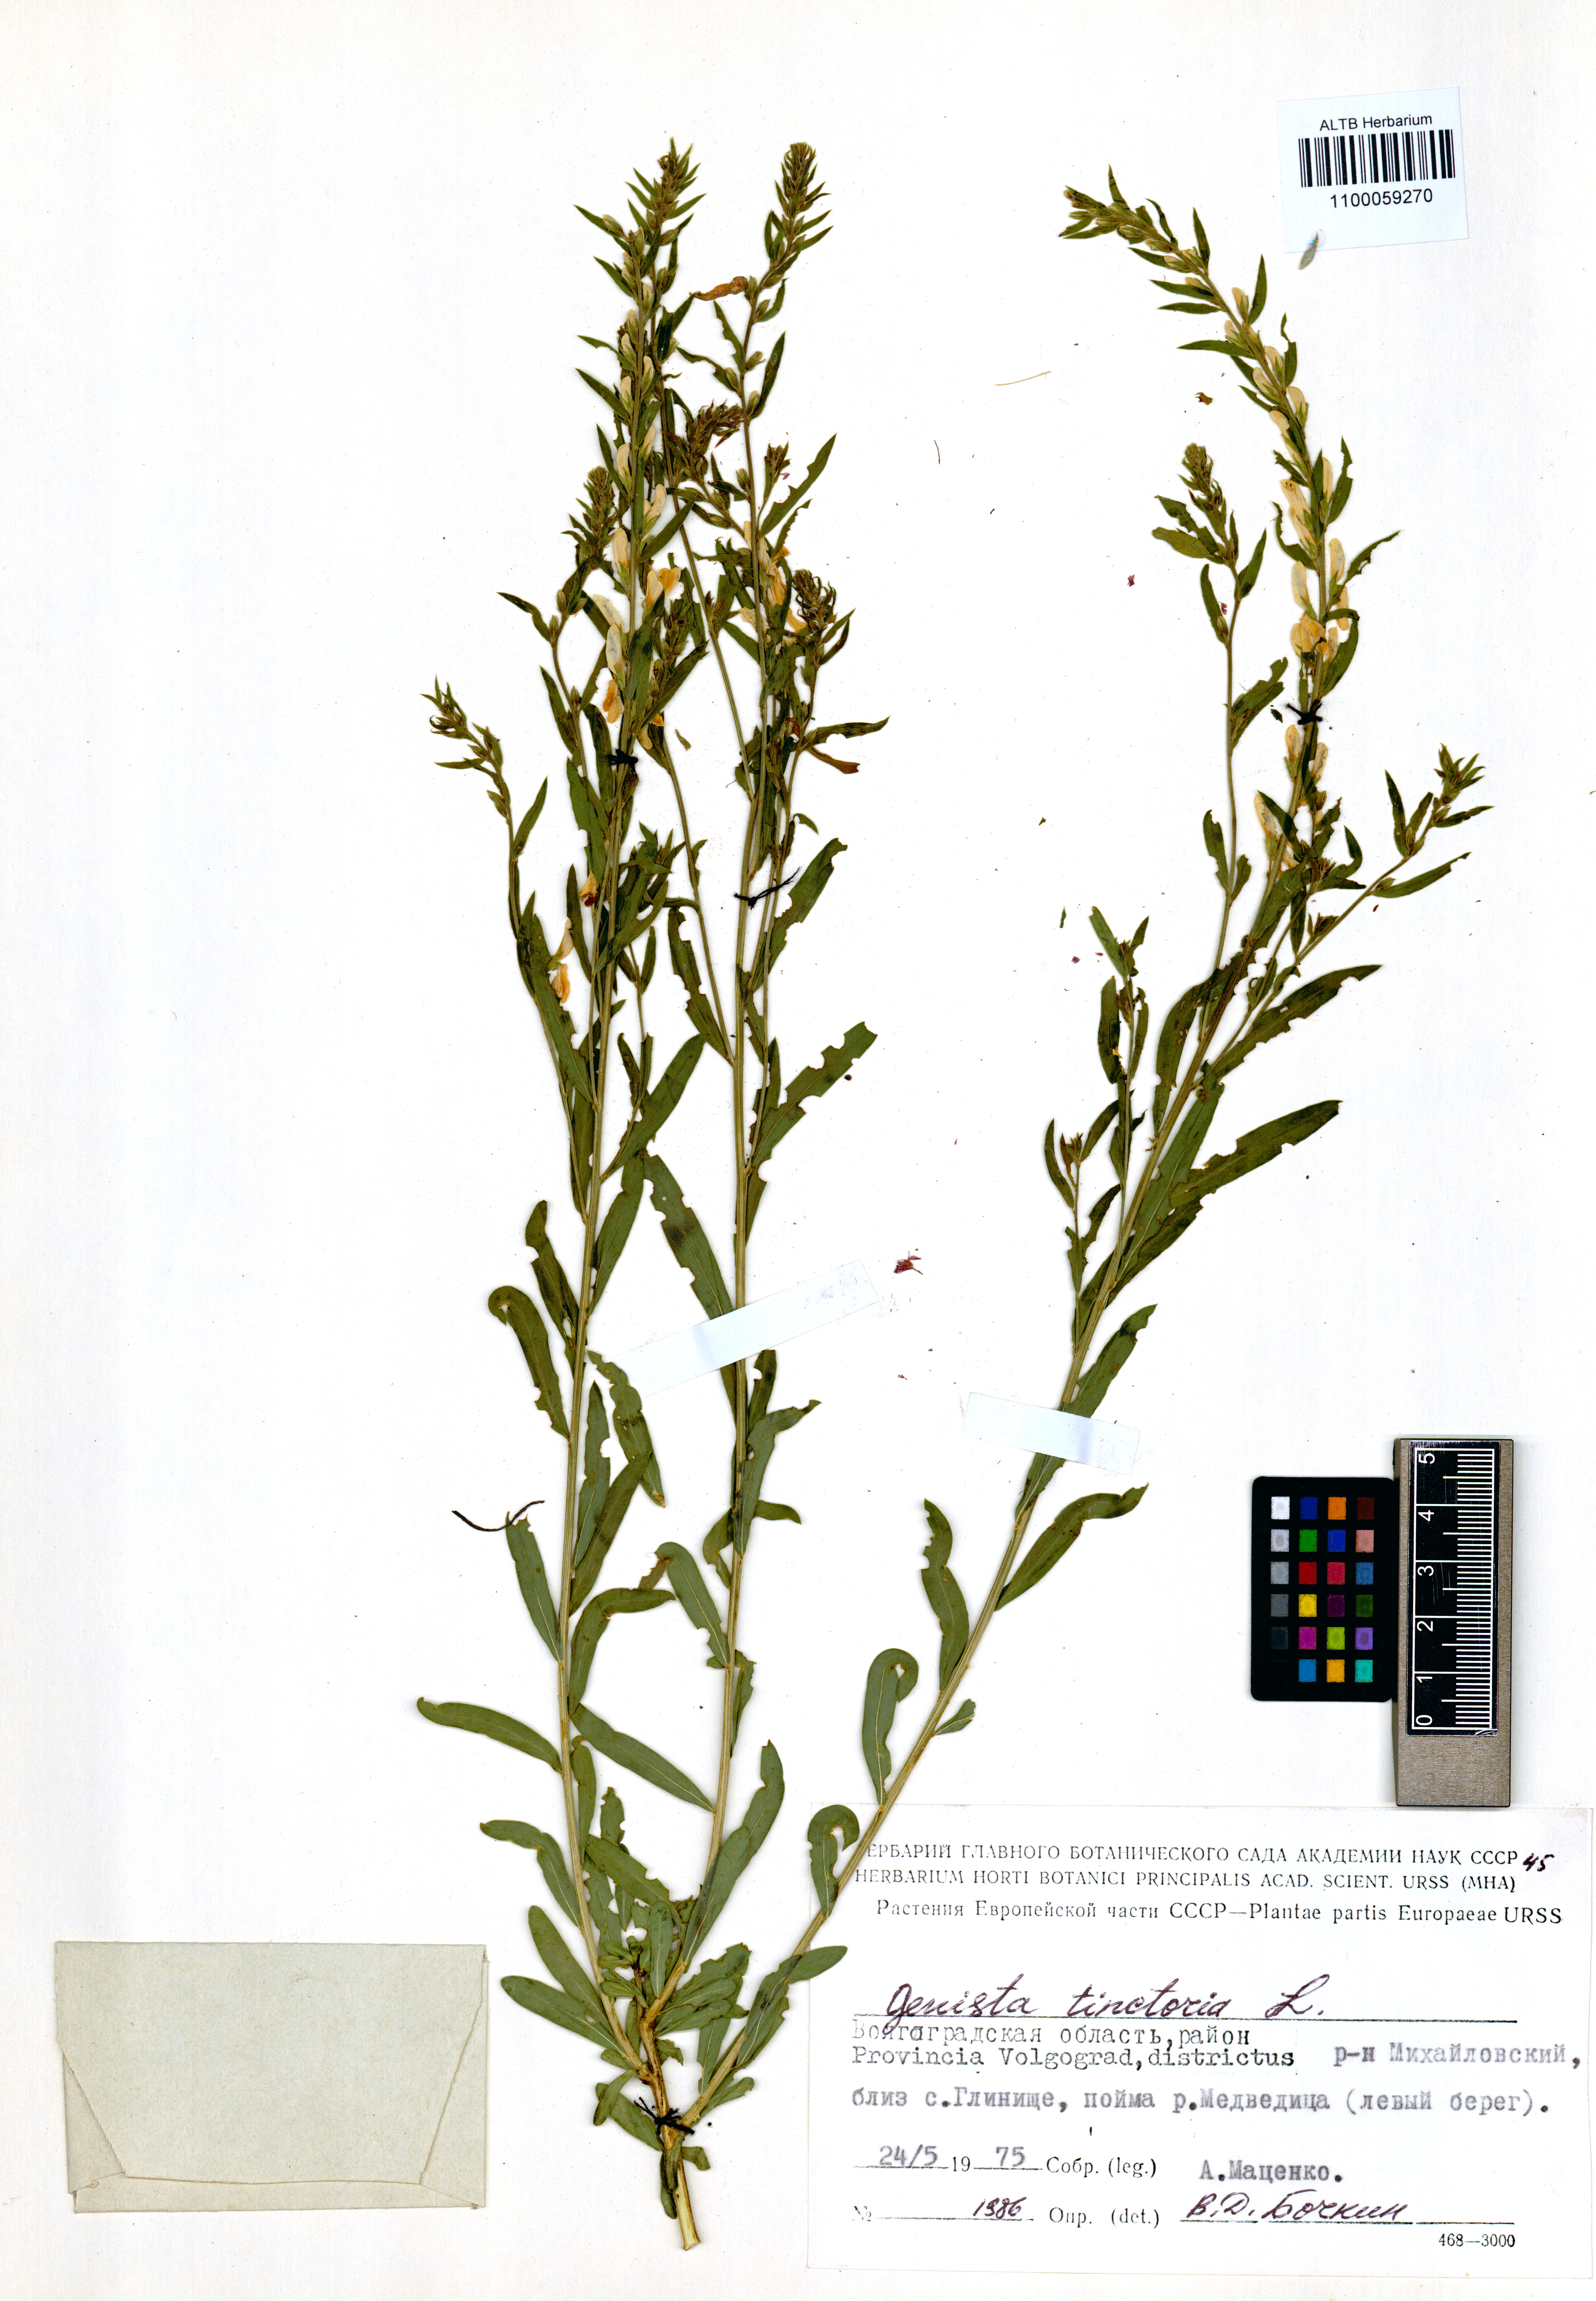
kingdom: Plantae
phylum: Tracheophyta
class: Magnoliopsida
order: Fabales
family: Fabaceae
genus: Genista
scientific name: Genista tinctoria
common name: Dyer's greenweed
